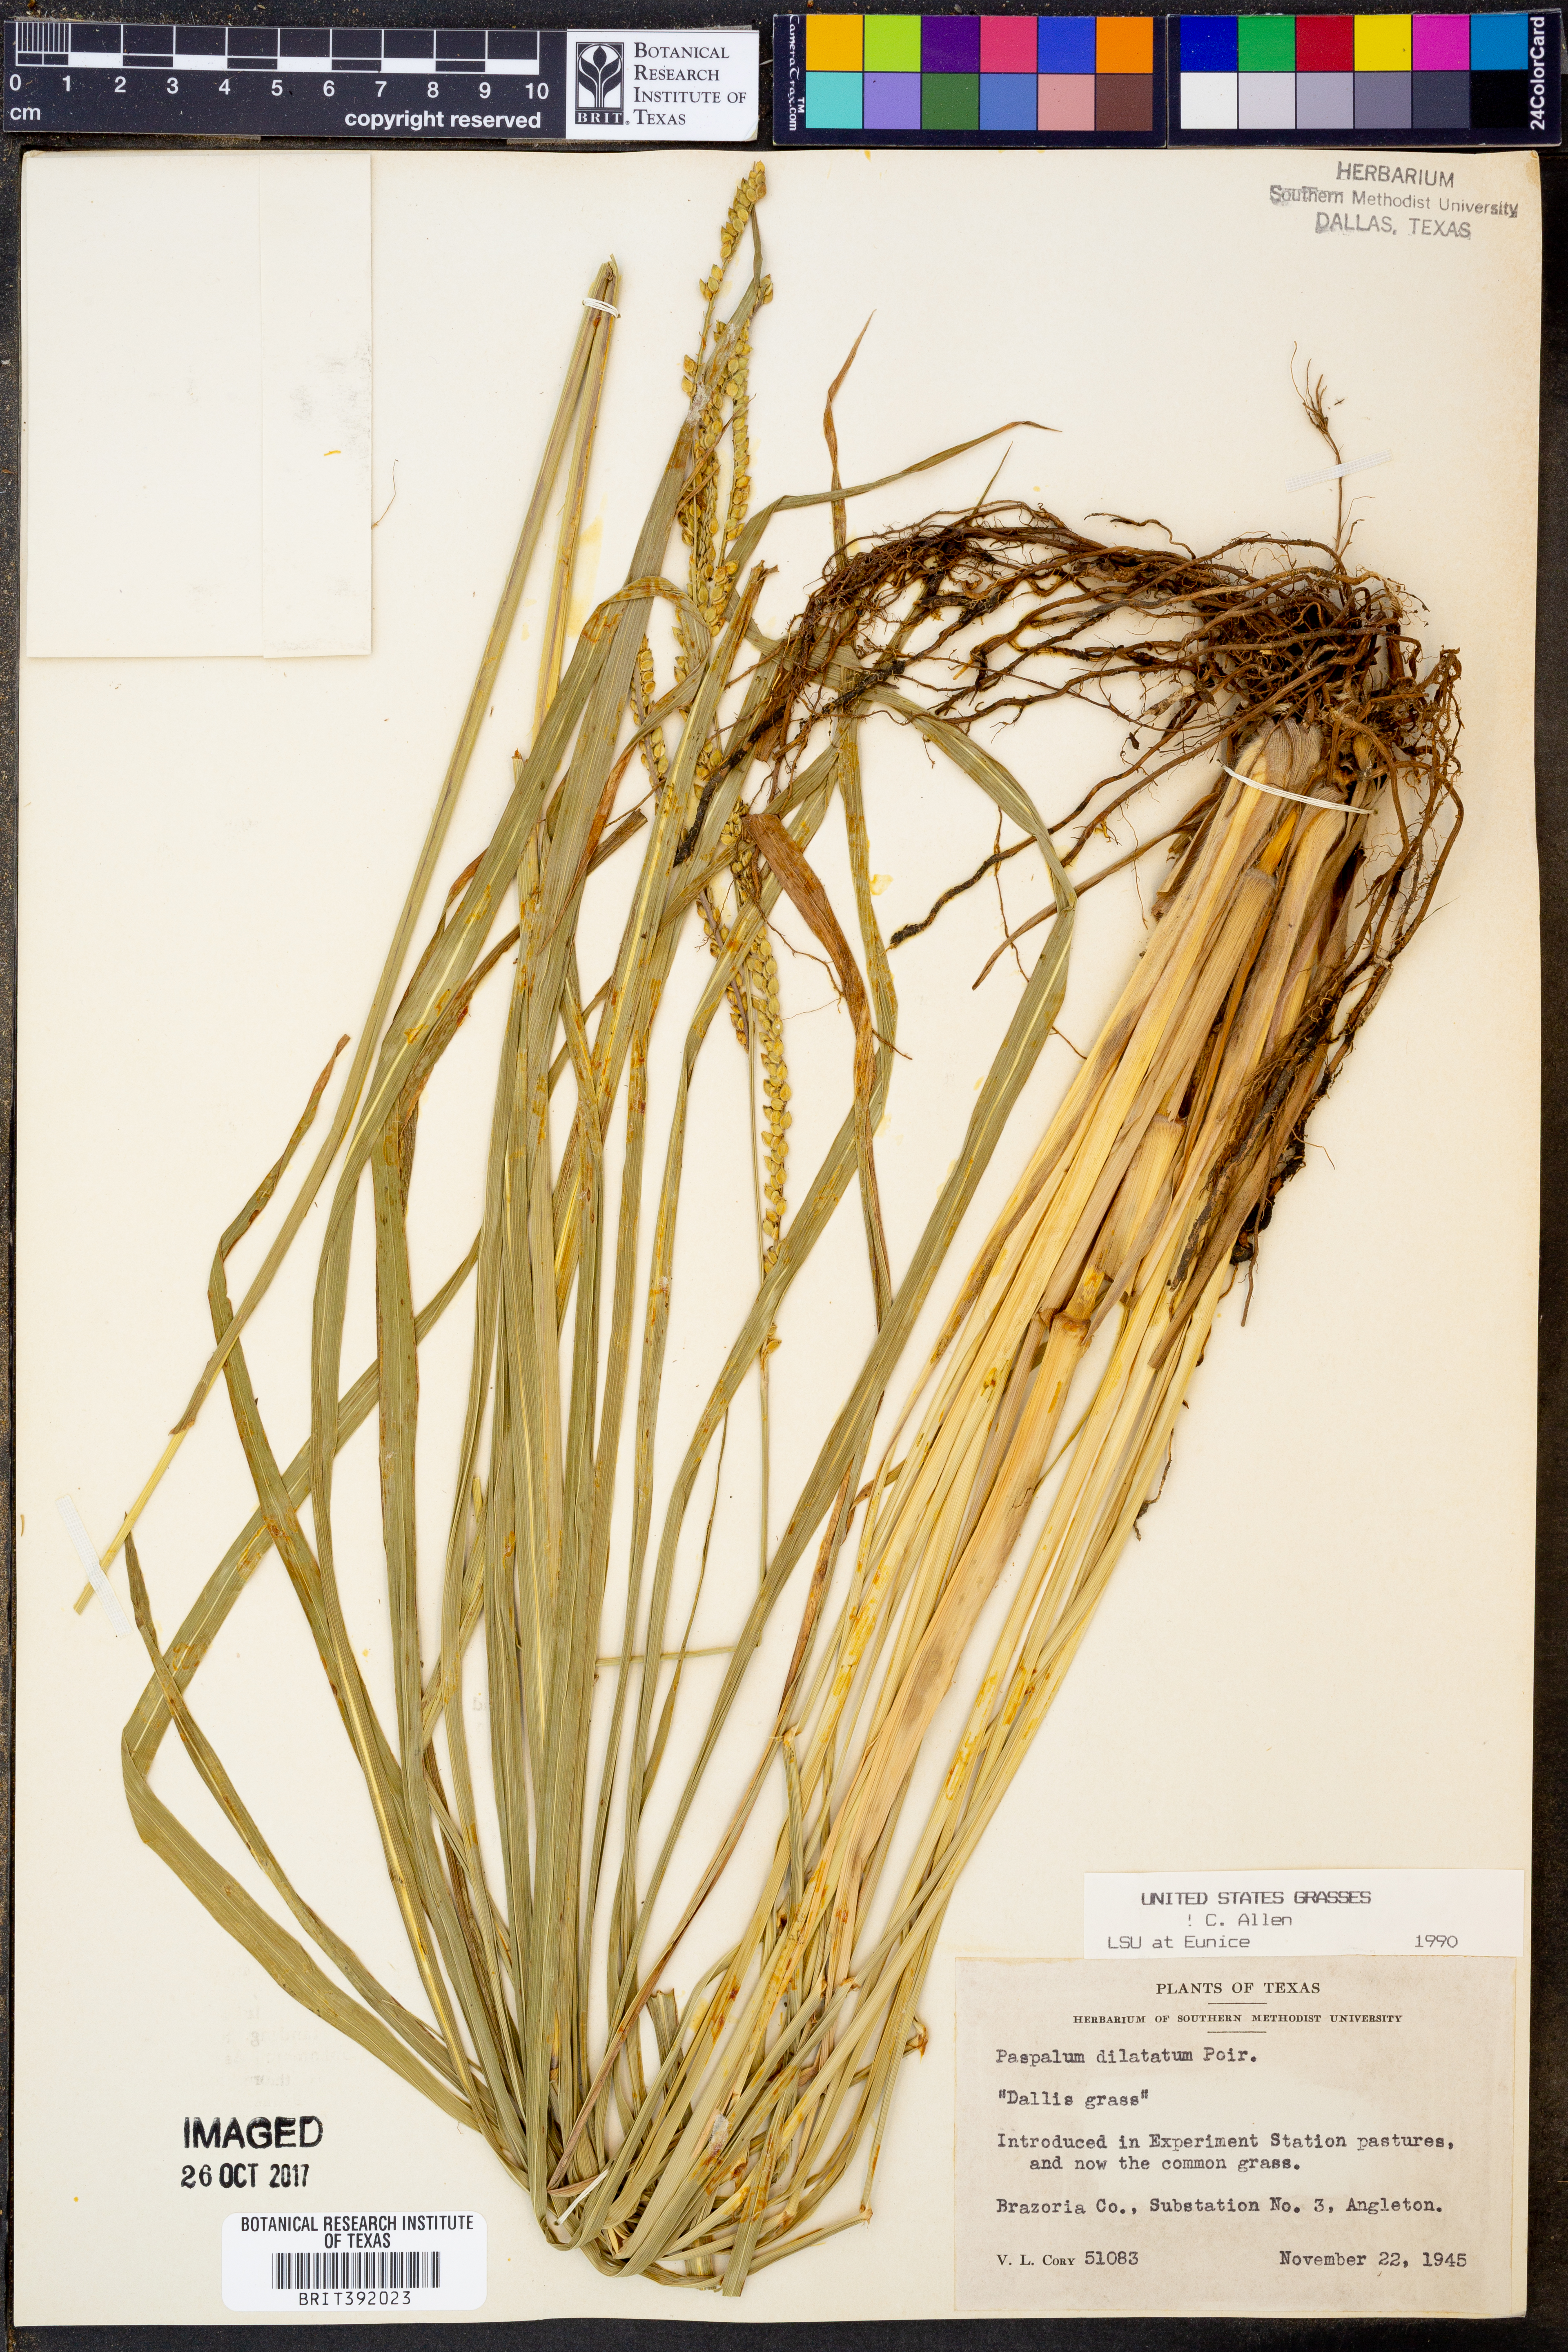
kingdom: Plantae
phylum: Tracheophyta
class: Liliopsida
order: Poales
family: Poaceae
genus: Paspalum
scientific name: Paspalum dilatatum
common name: Dallisgrass
